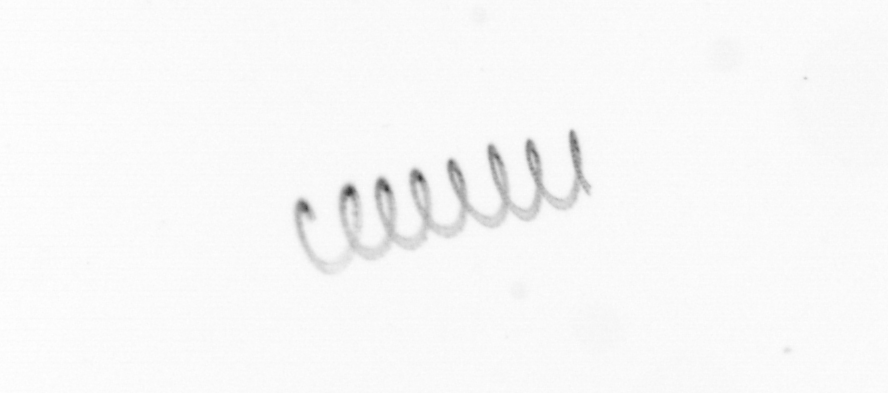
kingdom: Chromista
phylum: Ochrophyta
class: Bacillariophyceae
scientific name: Bacillariophyceae
